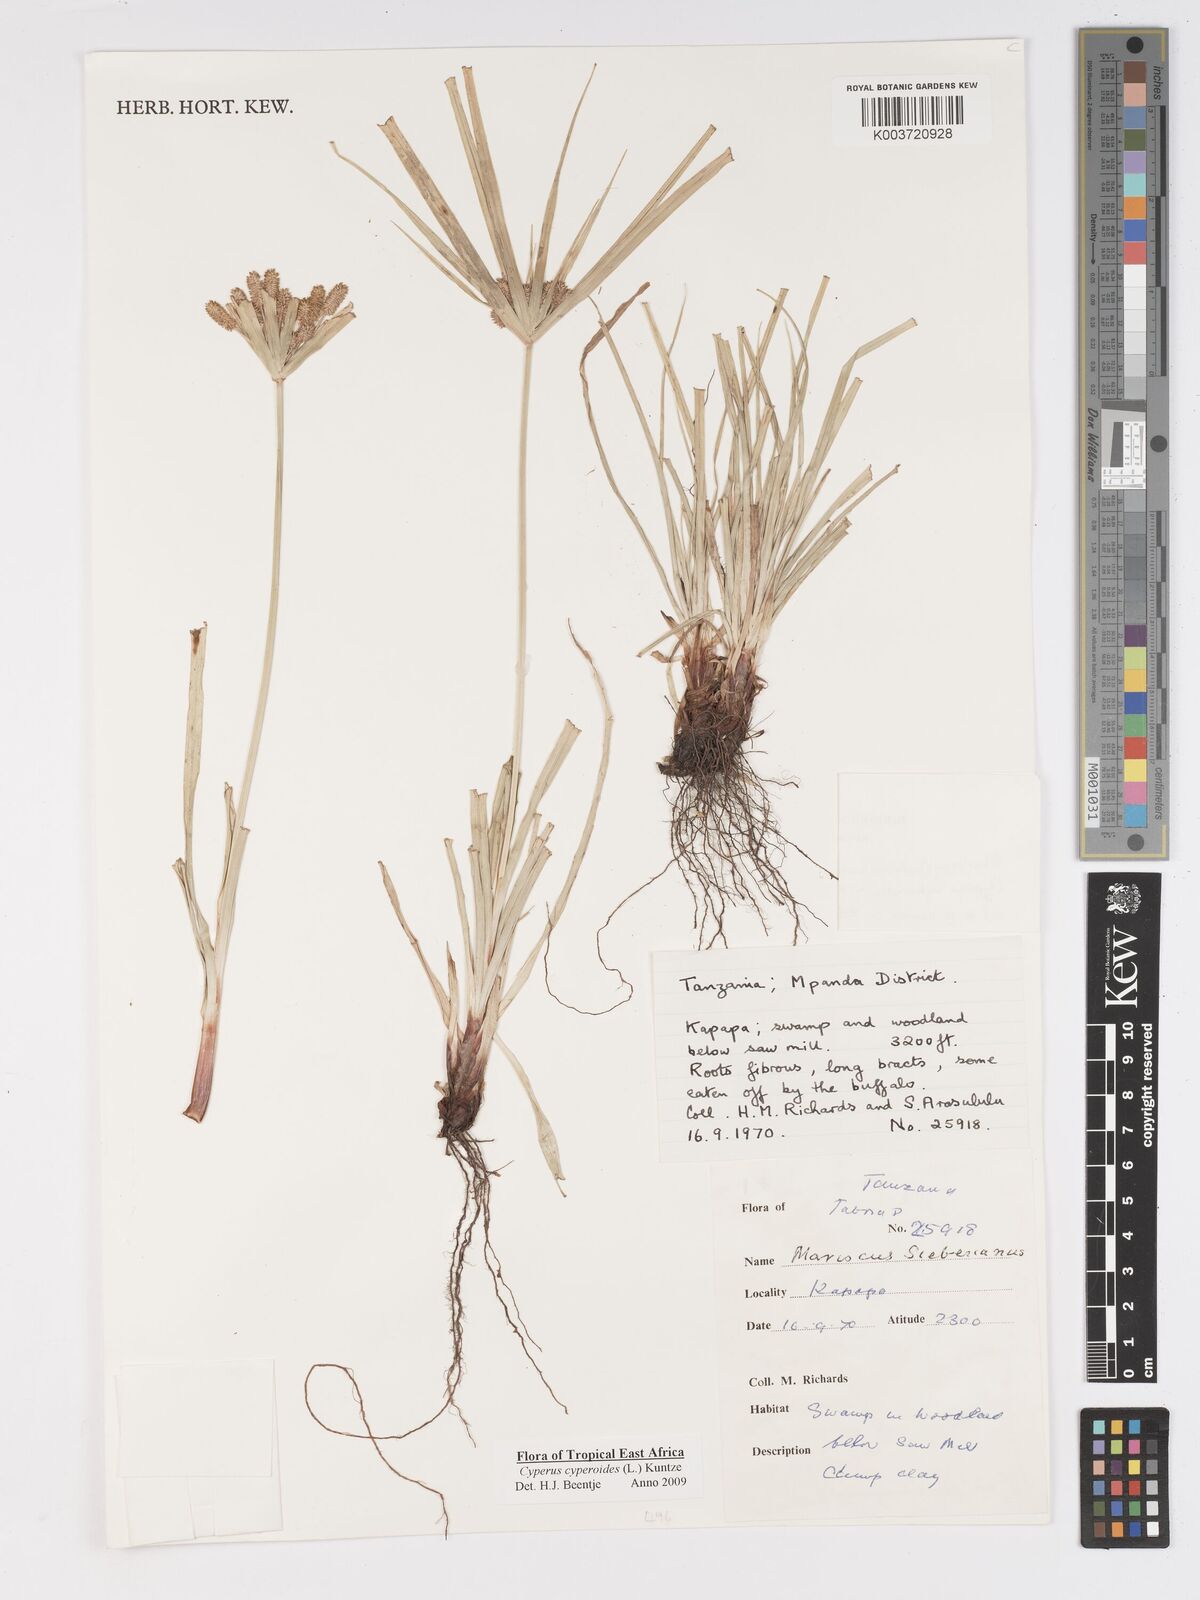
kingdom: Plantae
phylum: Tracheophyta
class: Liliopsida
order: Poales
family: Cyperaceae
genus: Cyperus
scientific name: Cyperus cyperoides
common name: Pacific island flat sedge
